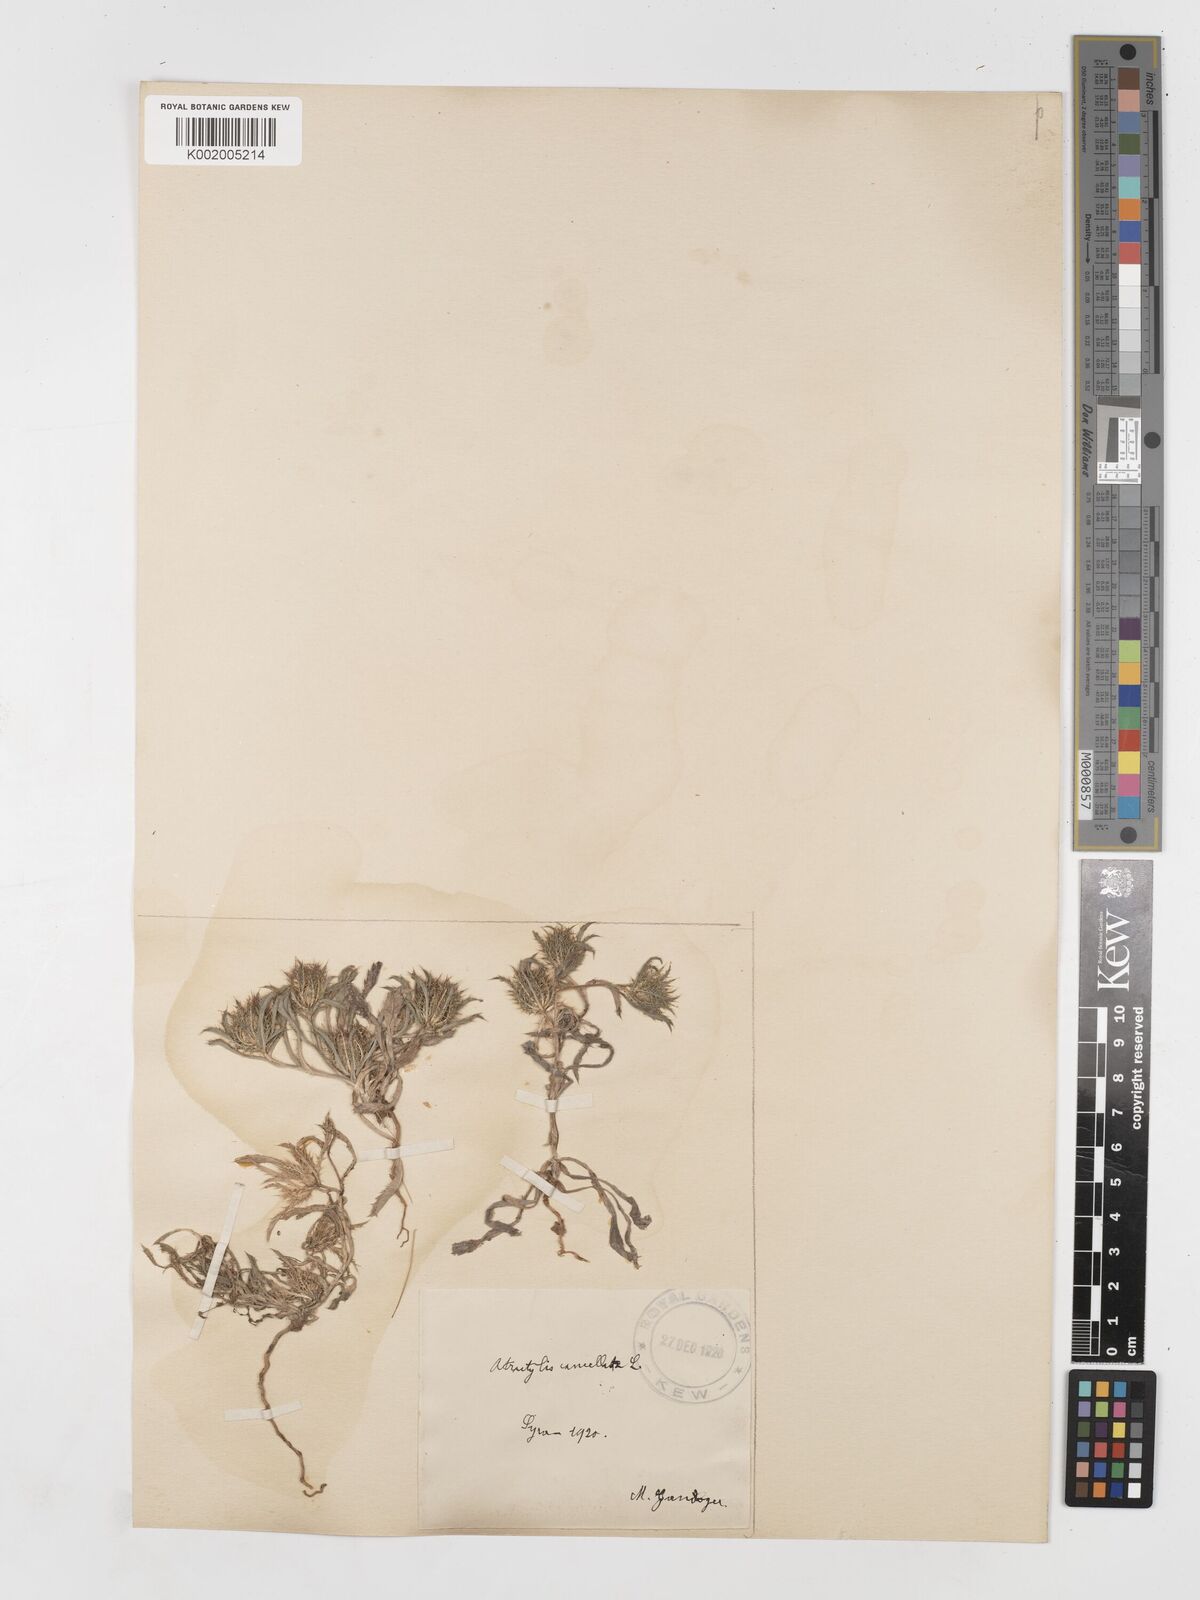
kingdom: Plantae
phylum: Tracheophyta
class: Magnoliopsida
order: Asterales
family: Asteraceae
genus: Atractylis
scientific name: Atractylis cancellata
